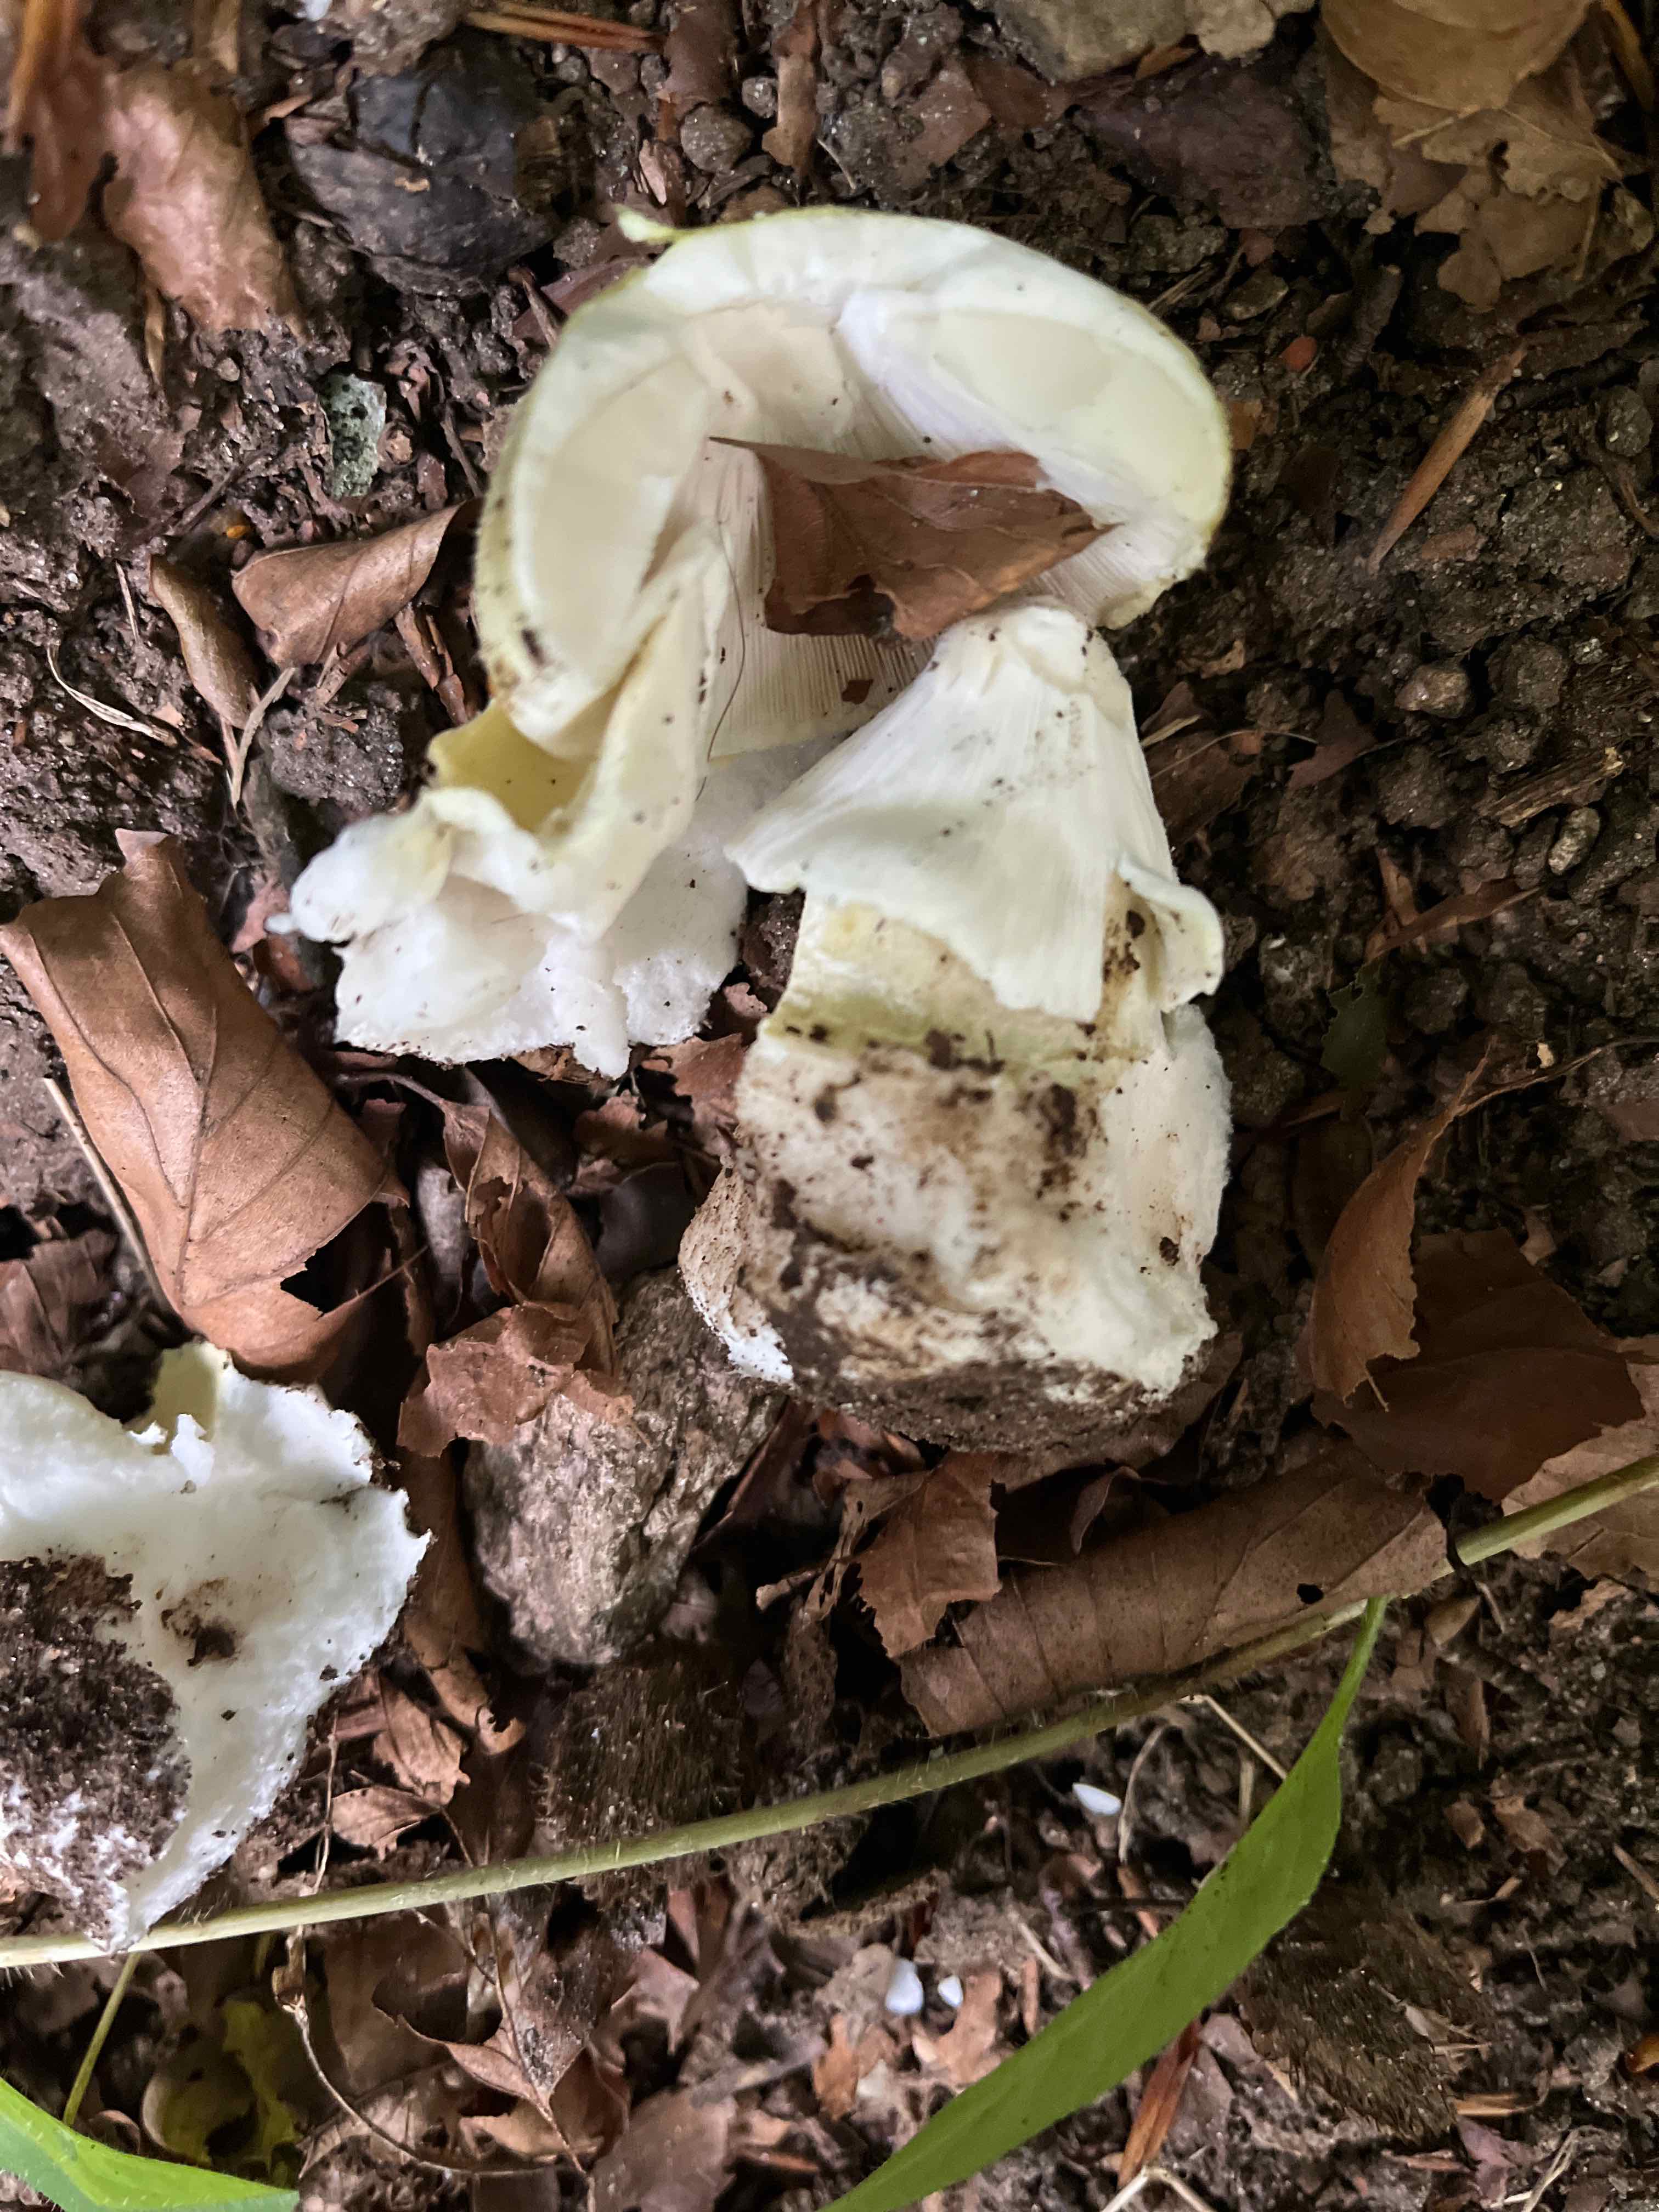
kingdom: Fungi
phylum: Basidiomycota
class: Agaricomycetes
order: Agaricales
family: Amanitaceae
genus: Amanita
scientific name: Amanita phalloides
